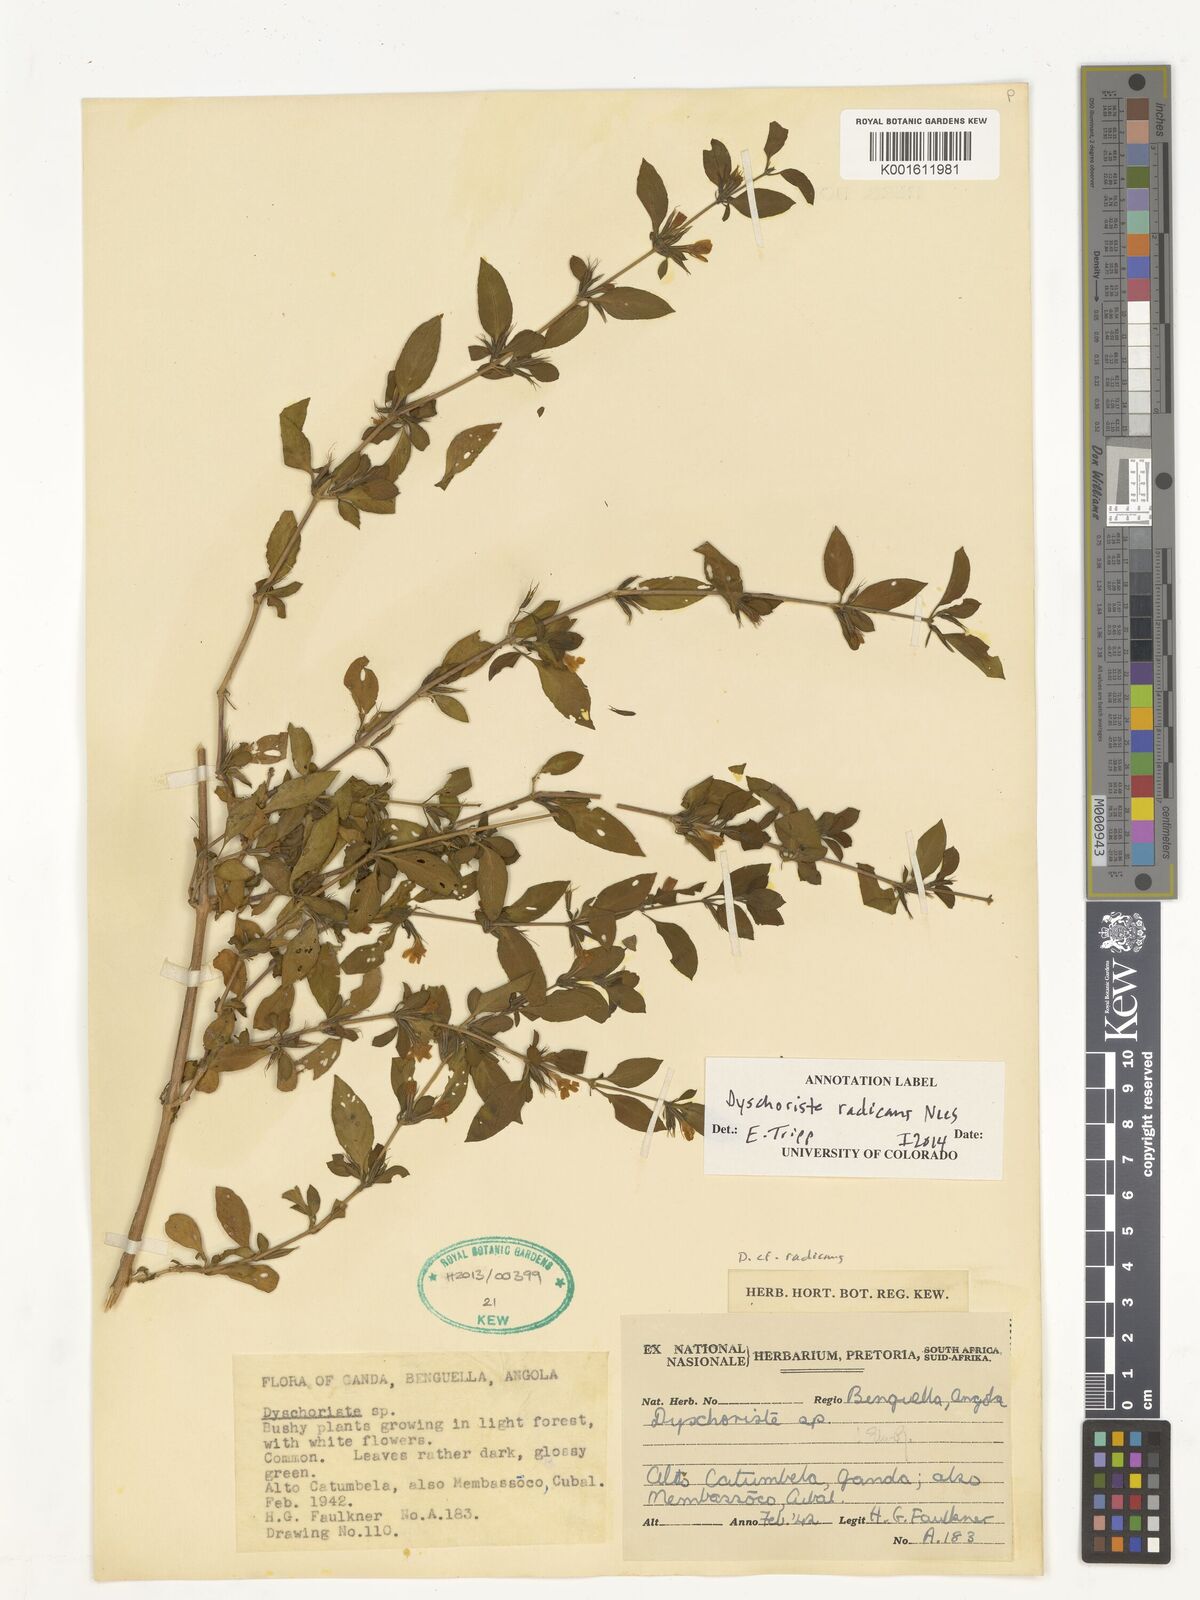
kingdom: Plantae
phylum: Tracheophyta
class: Magnoliopsida
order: Lamiales
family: Acanthaceae
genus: Dyschoriste
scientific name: Dyschoriste radicans
